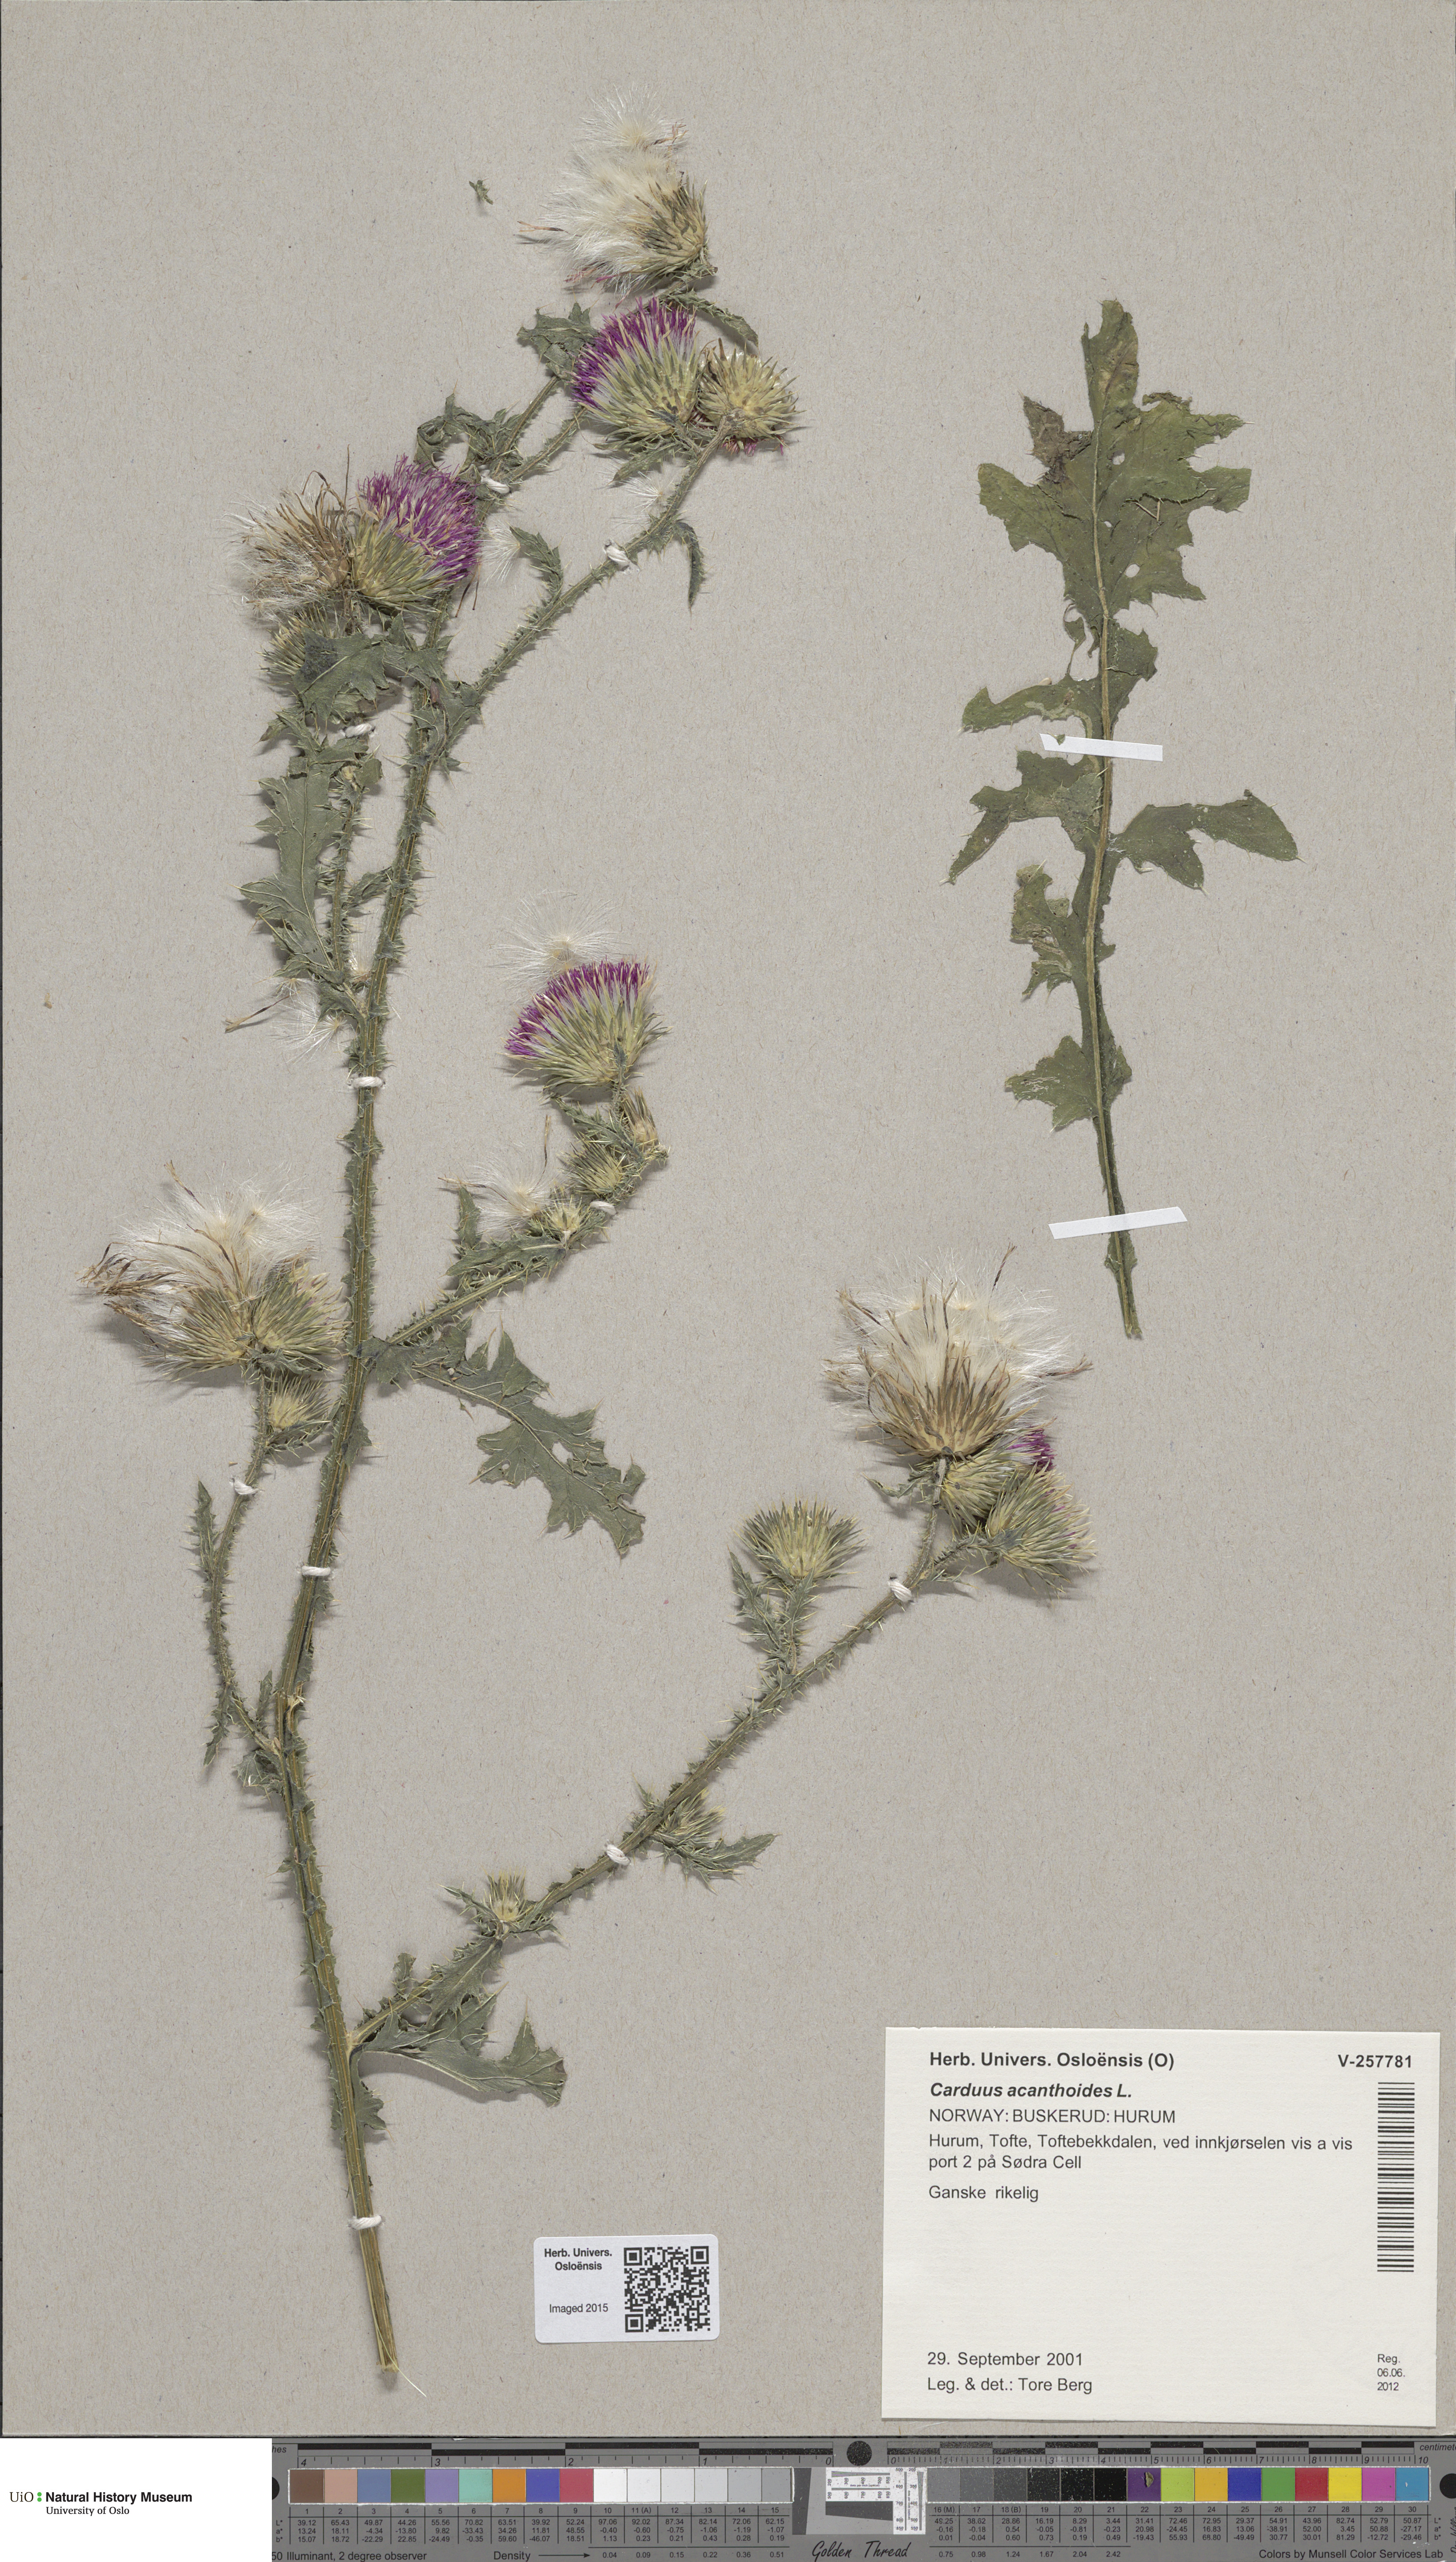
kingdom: Plantae
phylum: Tracheophyta
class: Magnoliopsida
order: Asterales
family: Asteraceae
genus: Carduus
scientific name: Carduus acanthoides
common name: Plumeless thistle
